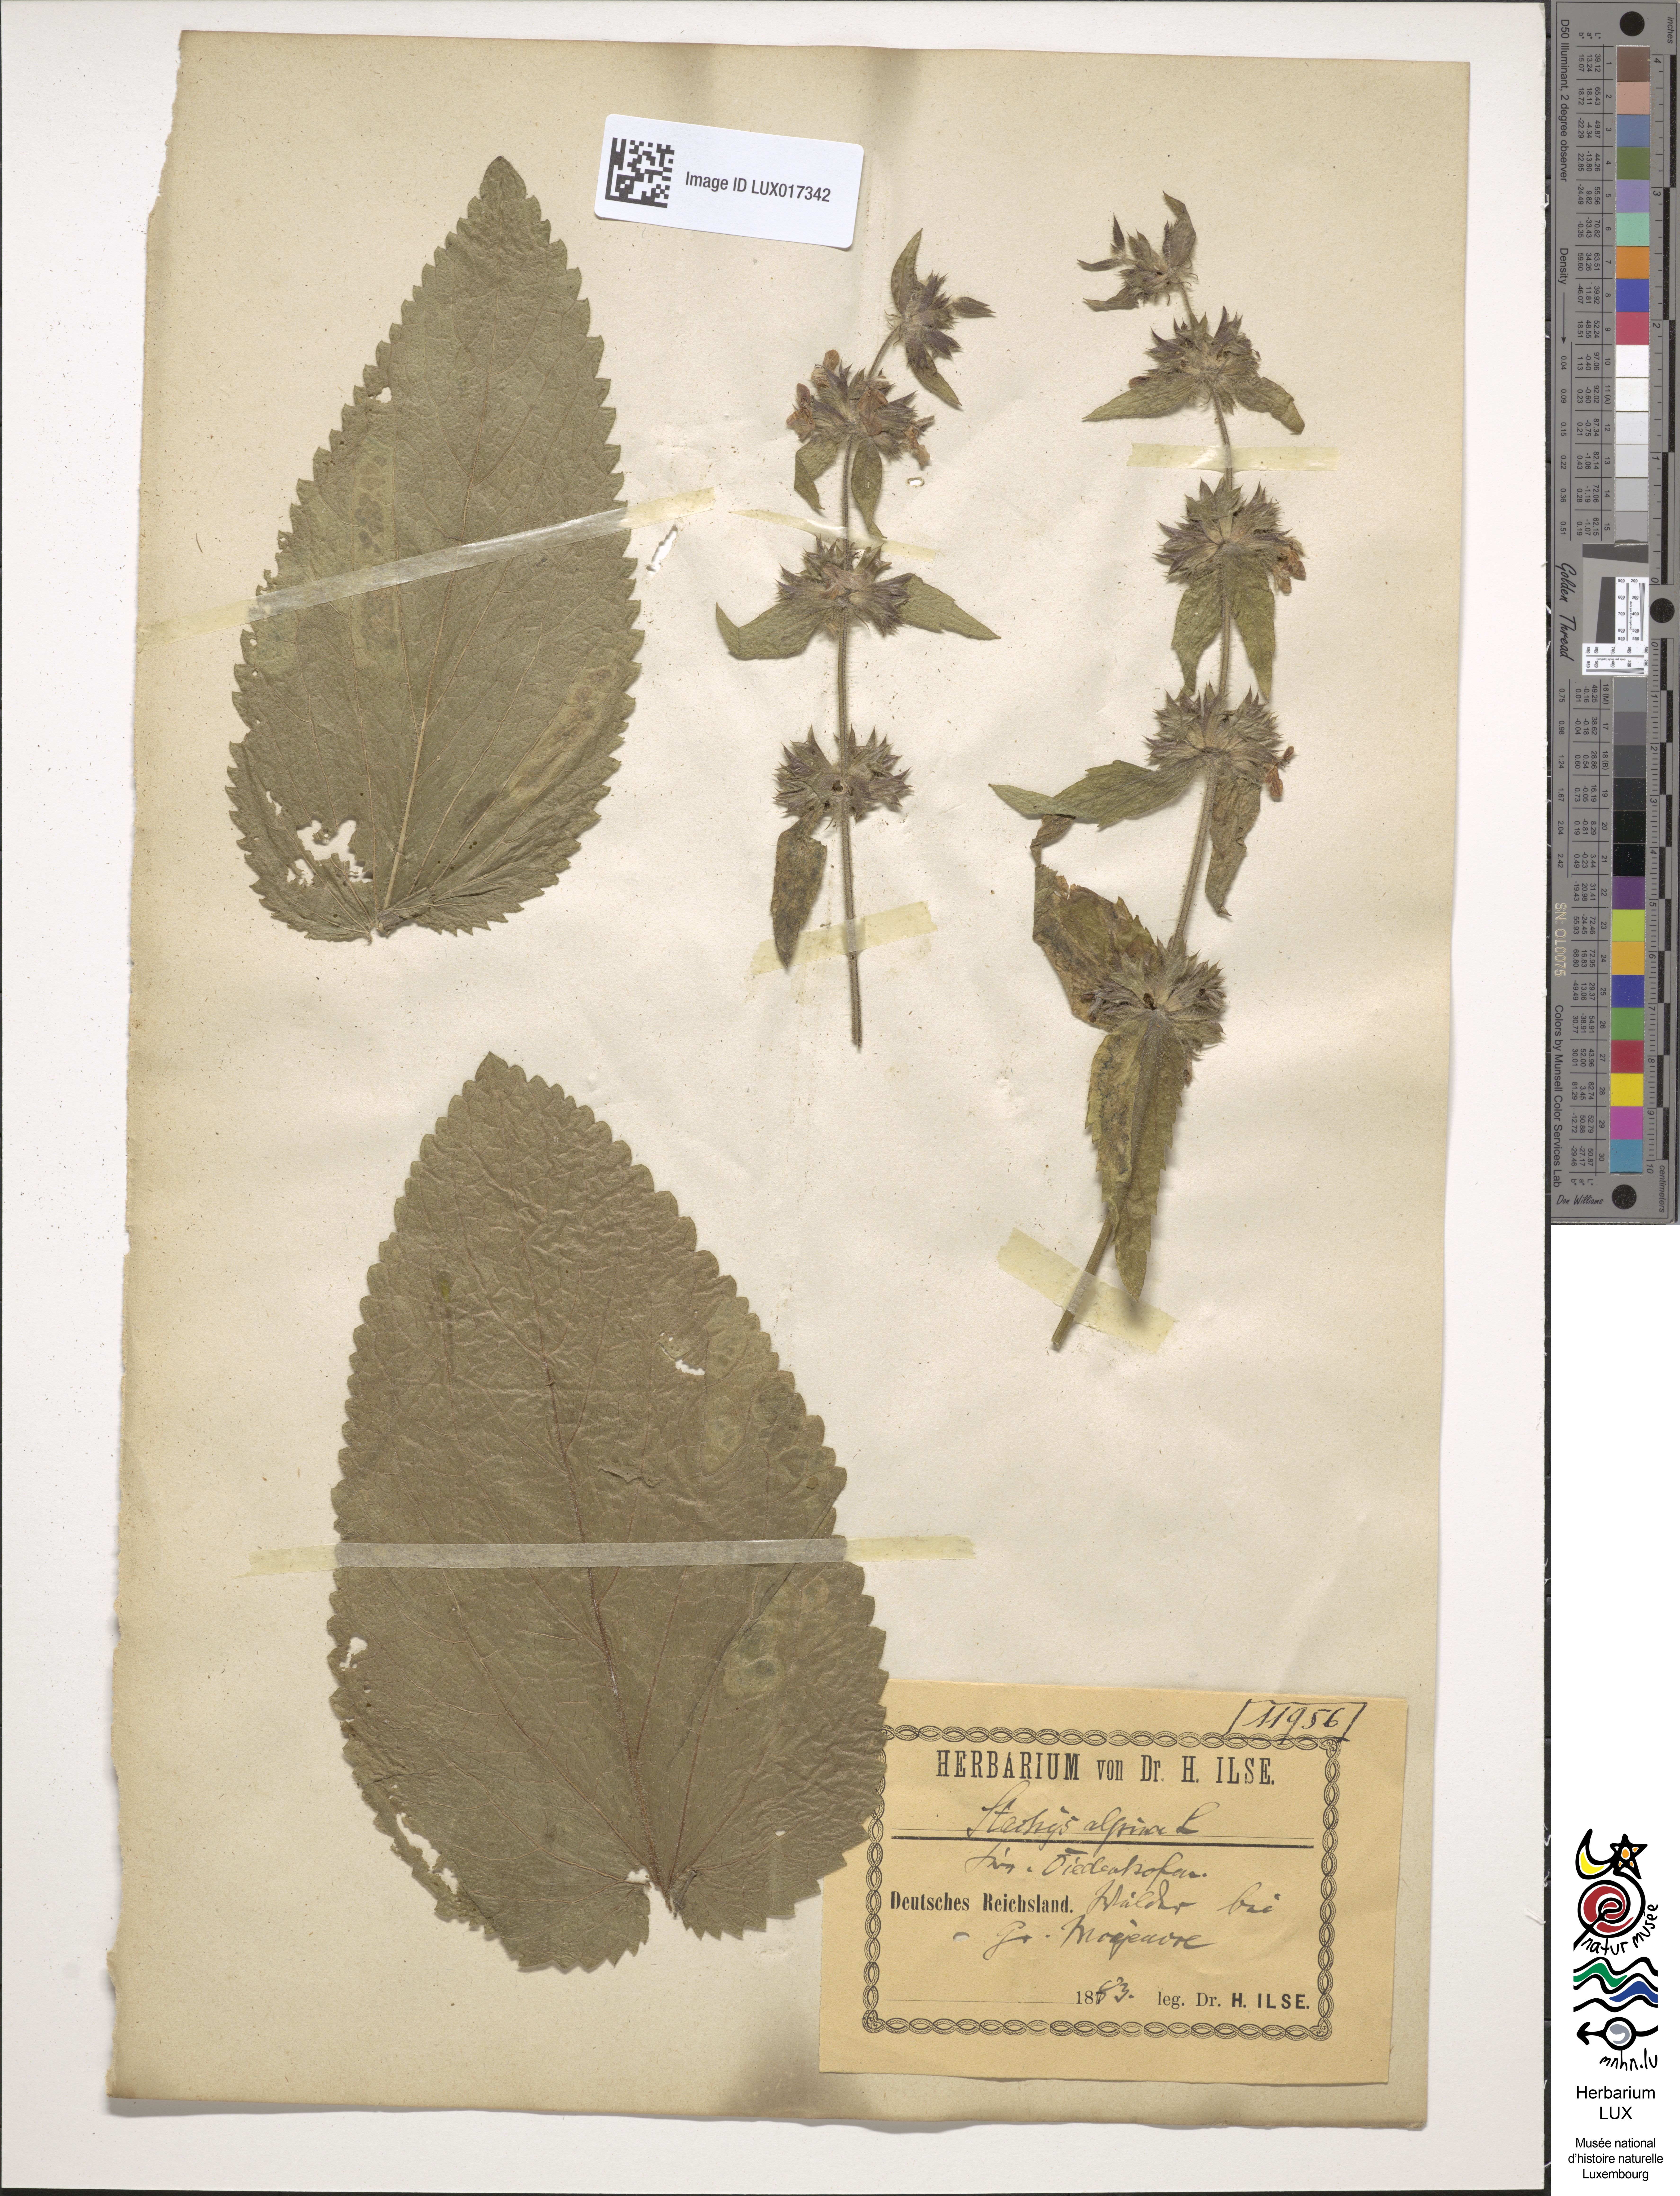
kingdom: Plantae
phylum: Tracheophyta
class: Magnoliopsida
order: Lamiales
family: Lamiaceae
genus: Stachys
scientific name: Stachys alpina
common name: Limestone woundwort
